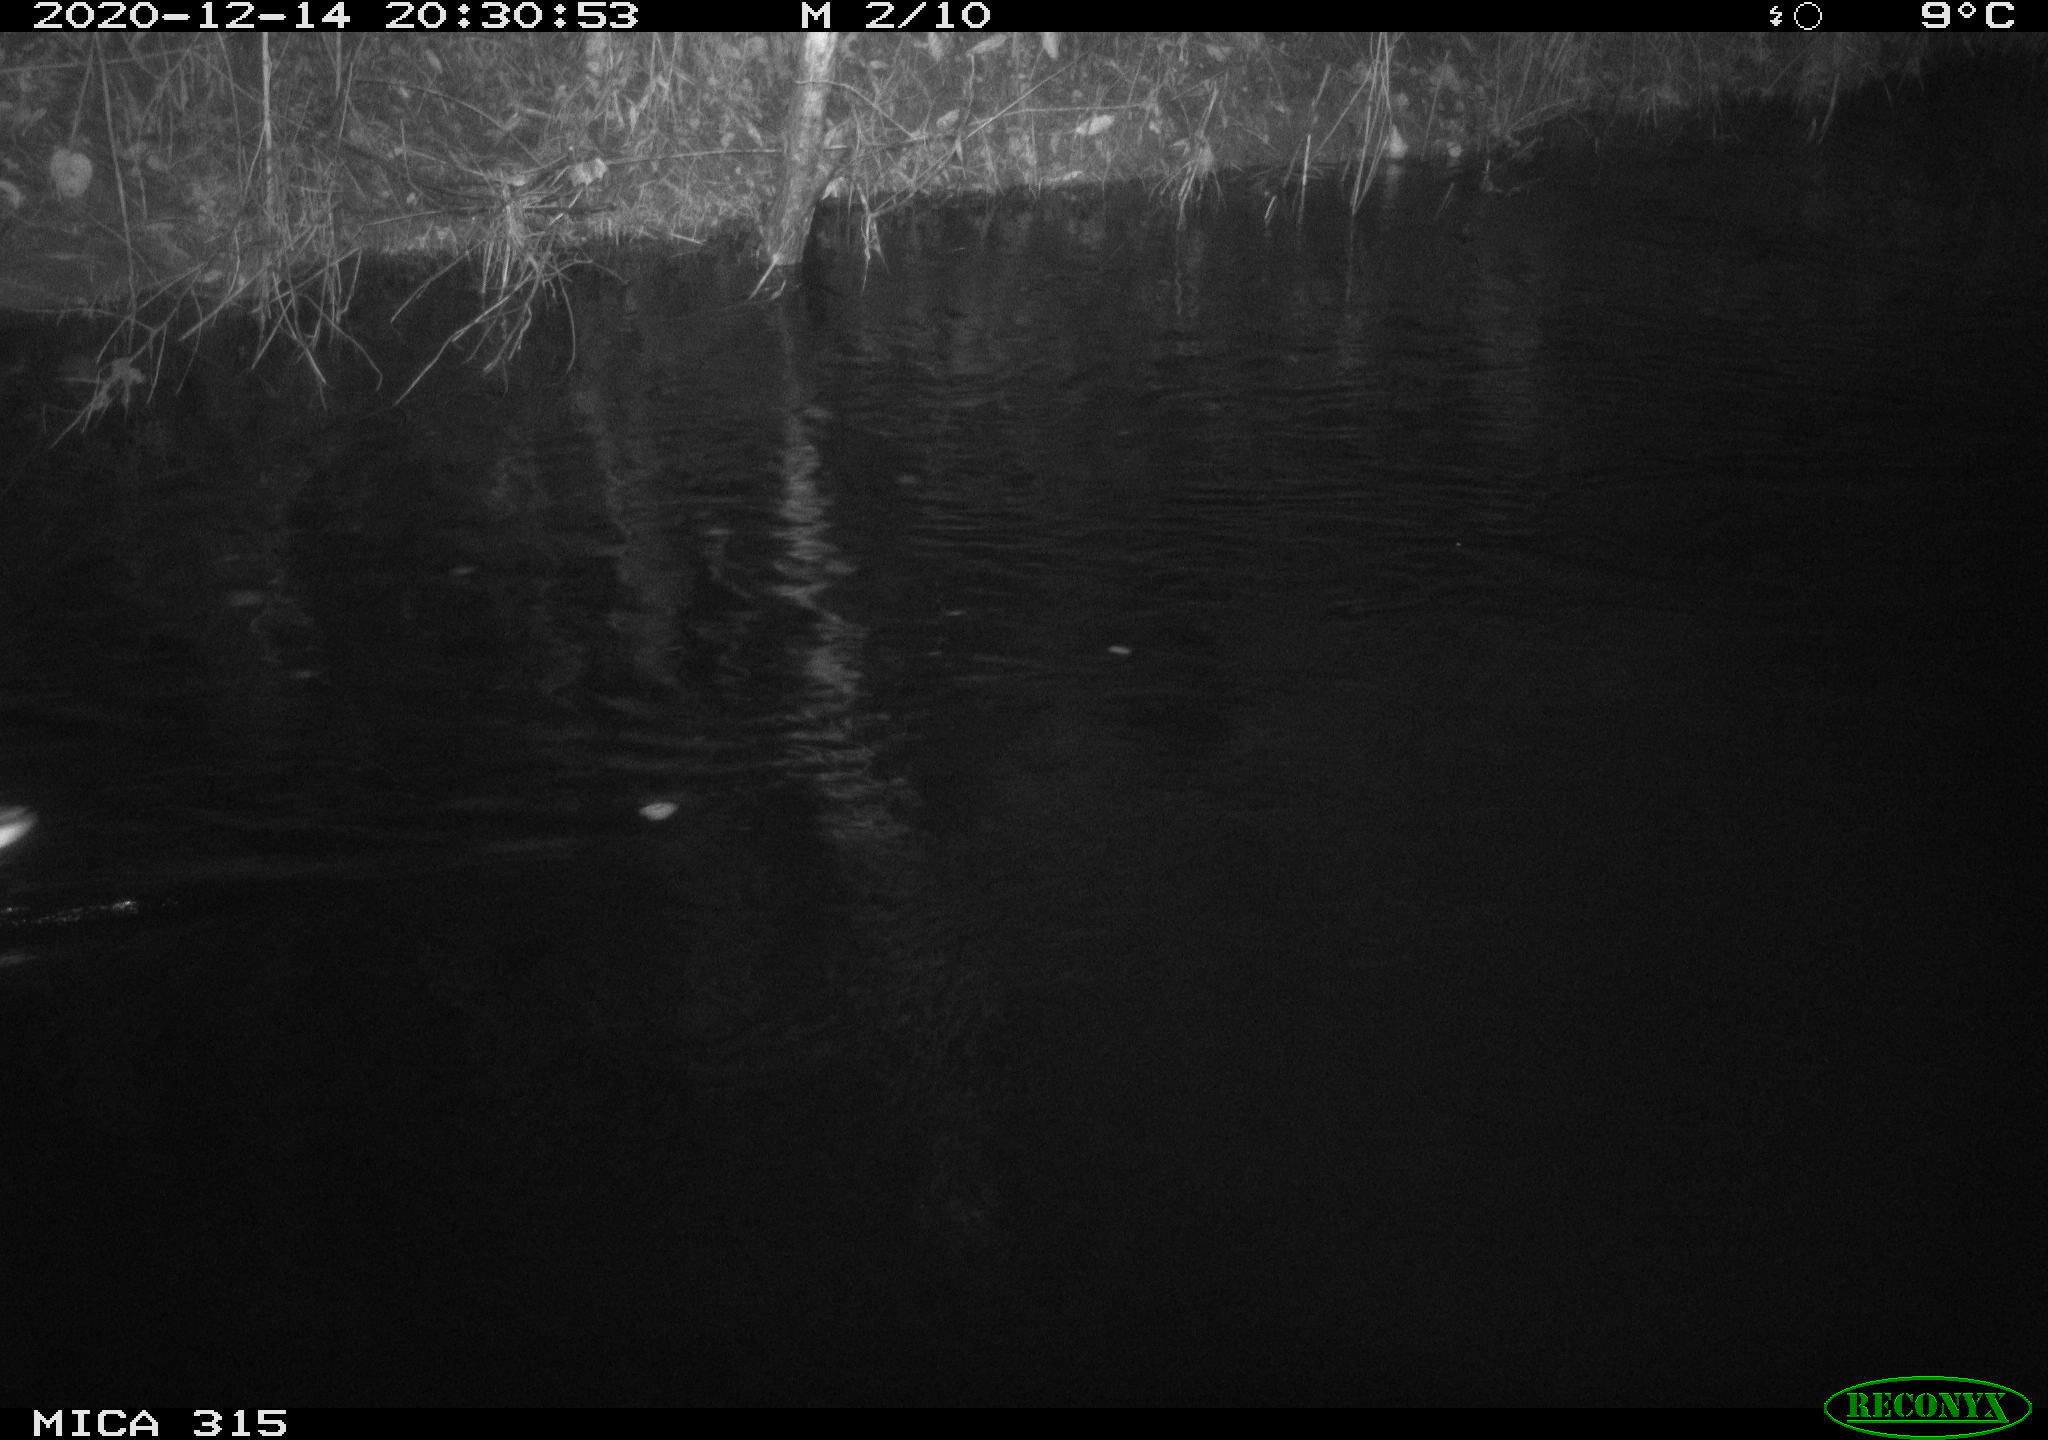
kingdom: Animalia
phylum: Chordata
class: Aves
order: Anseriformes
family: Anatidae
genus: Anas
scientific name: Anas platyrhynchos
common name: Mallard
